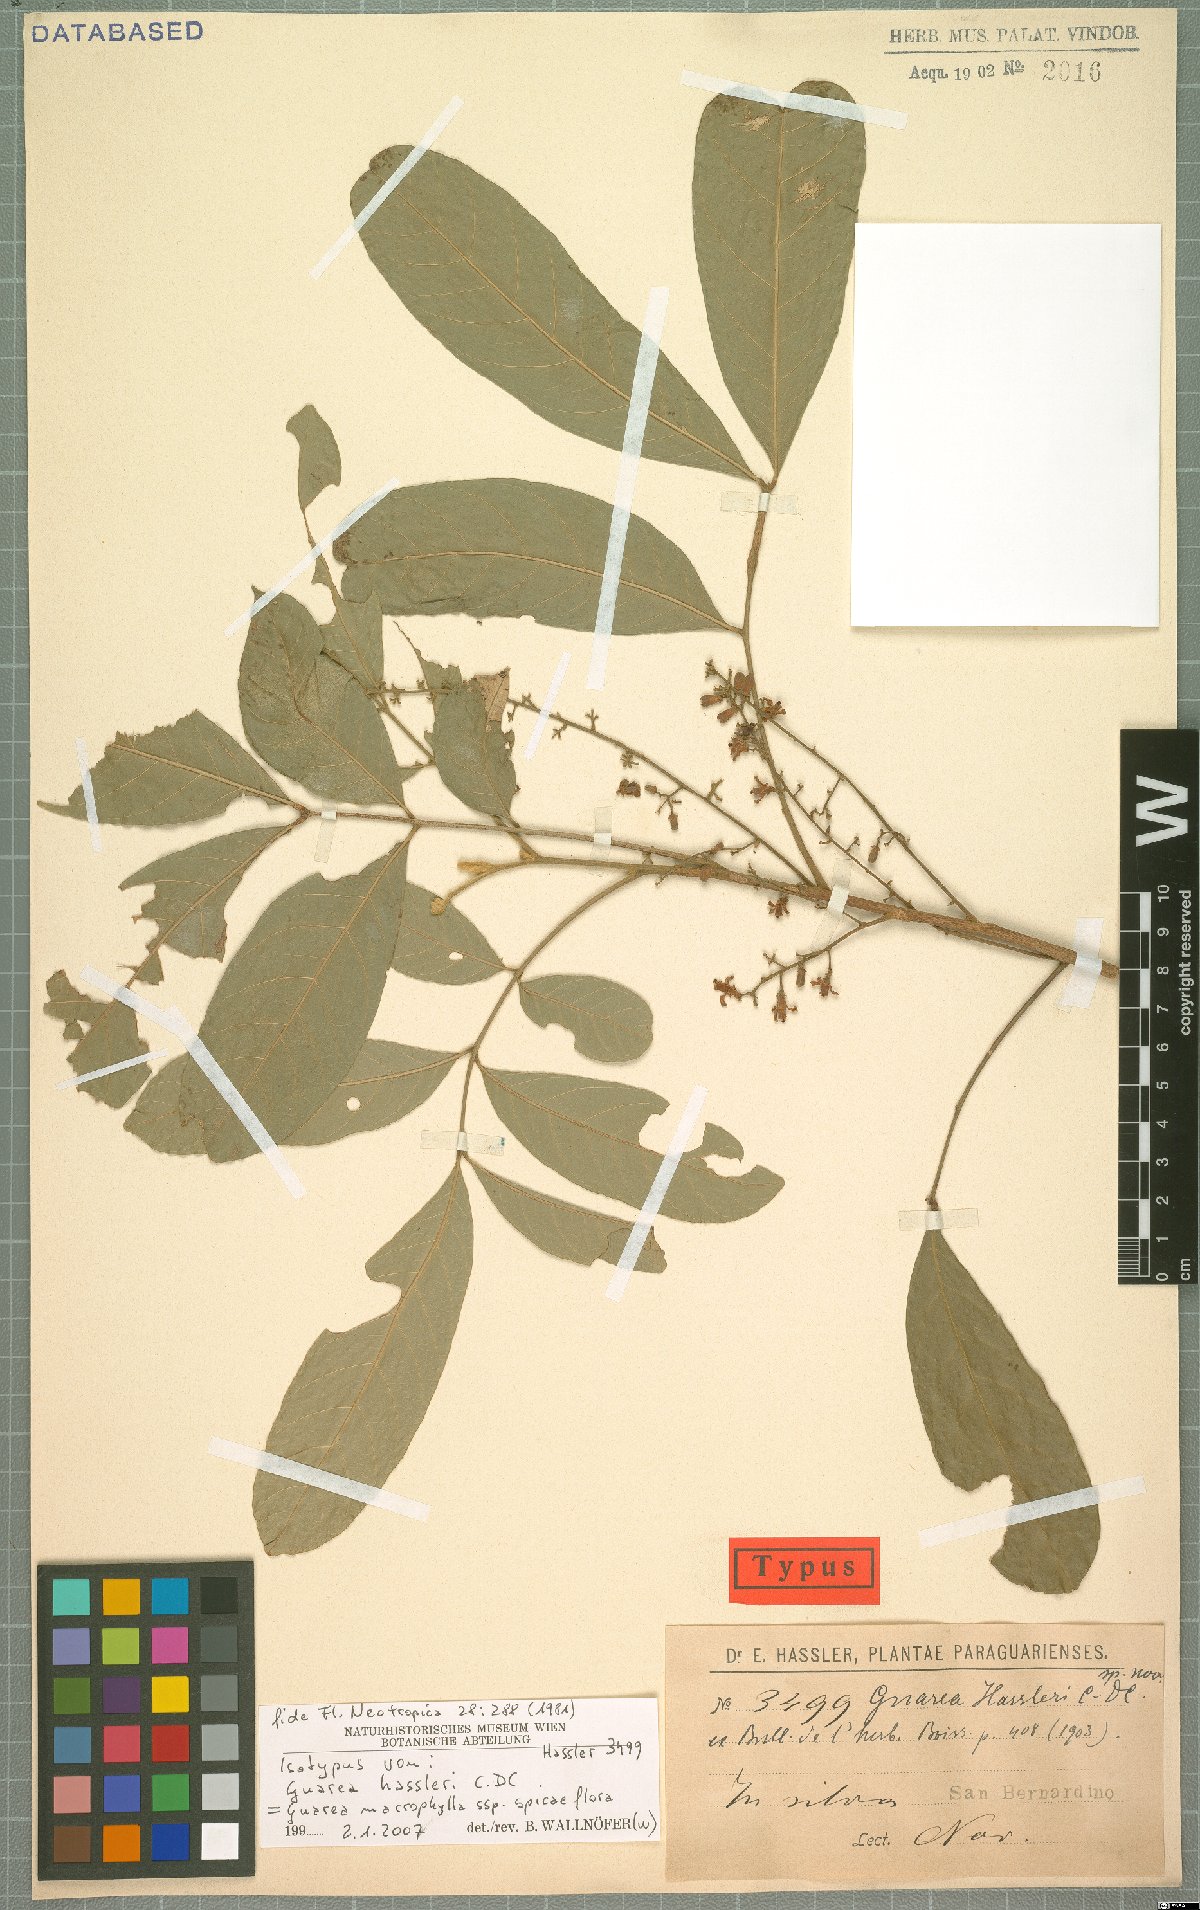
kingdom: Plantae
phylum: Tracheophyta
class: Magnoliopsida
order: Sapindales
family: Meliaceae
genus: Guarea
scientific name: Guarea macrophylla
